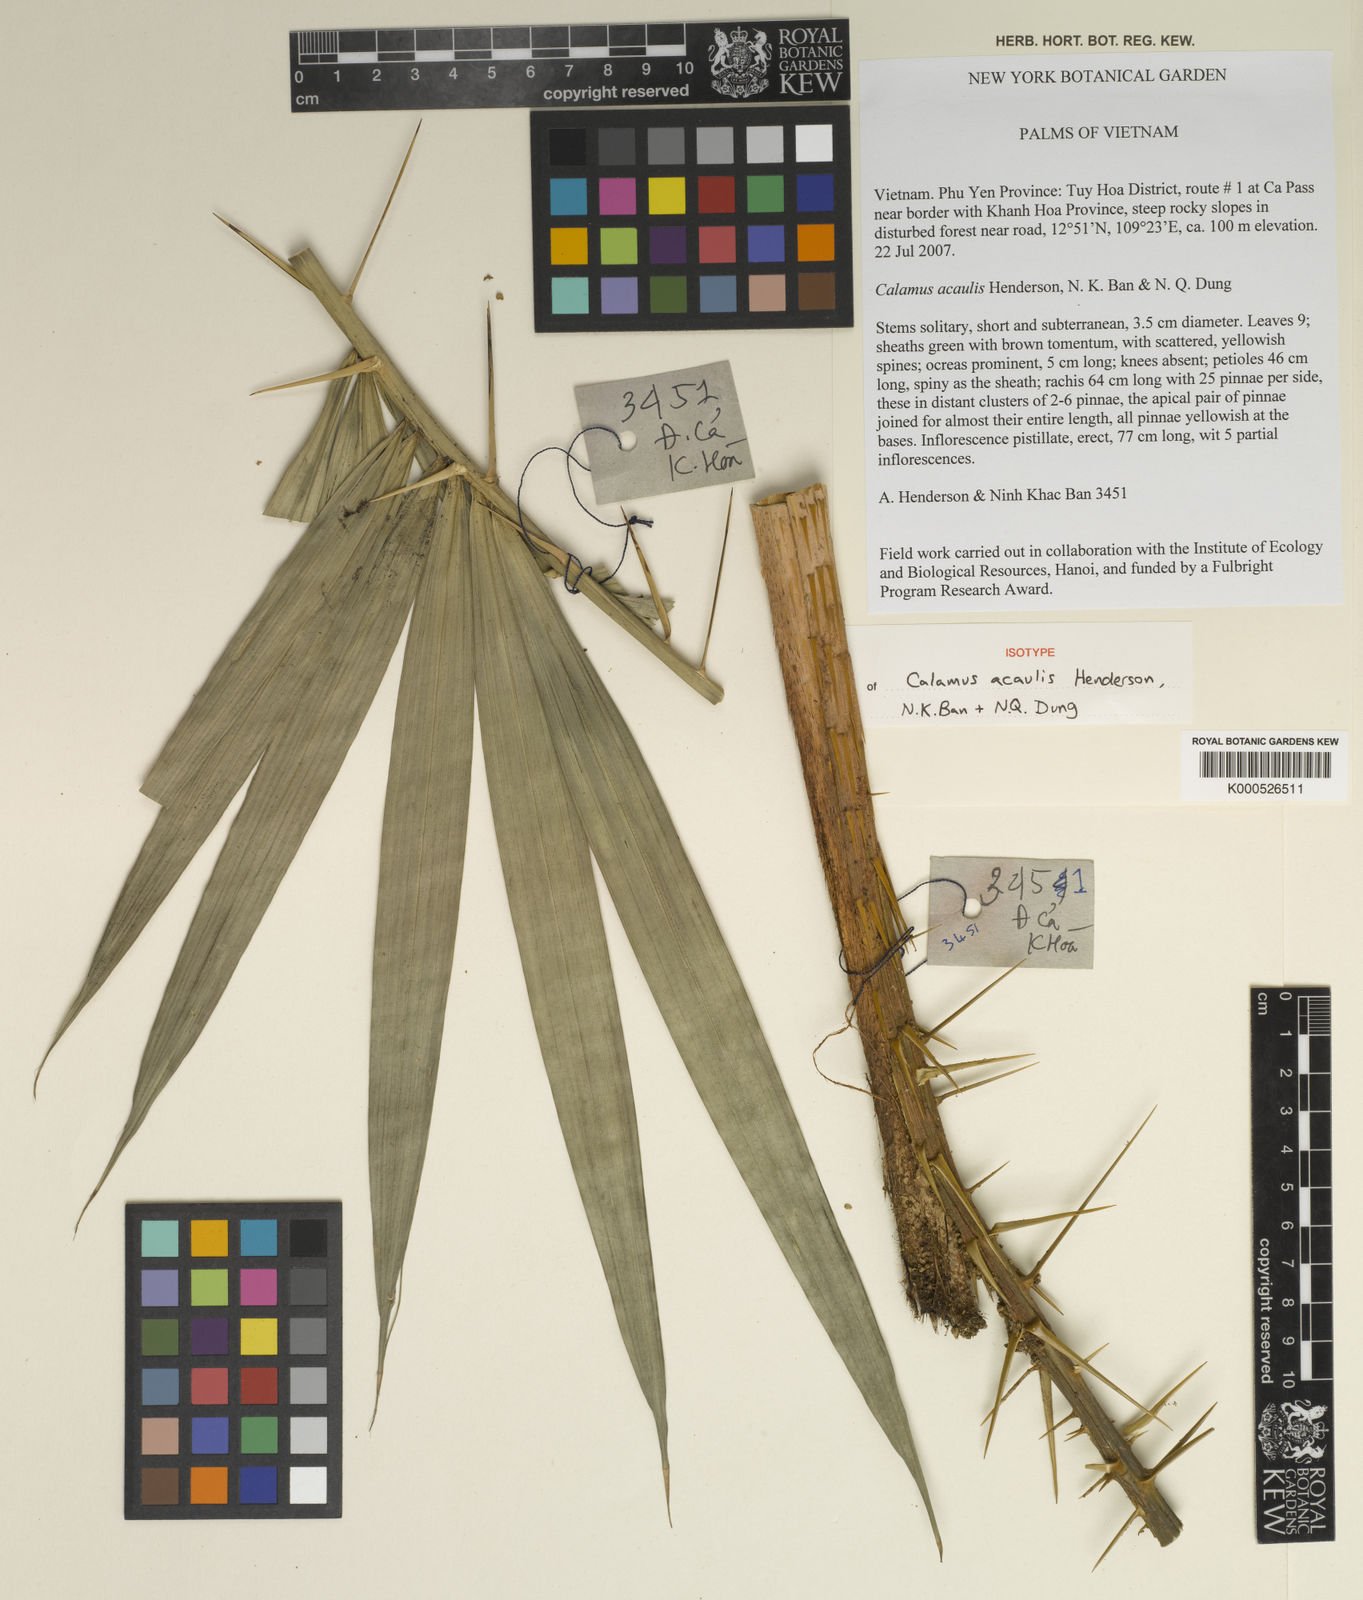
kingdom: Plantae
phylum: Tracheophyta
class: Liliopsida
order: Arecales
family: Arecaceae
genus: Calamus
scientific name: Calamus
